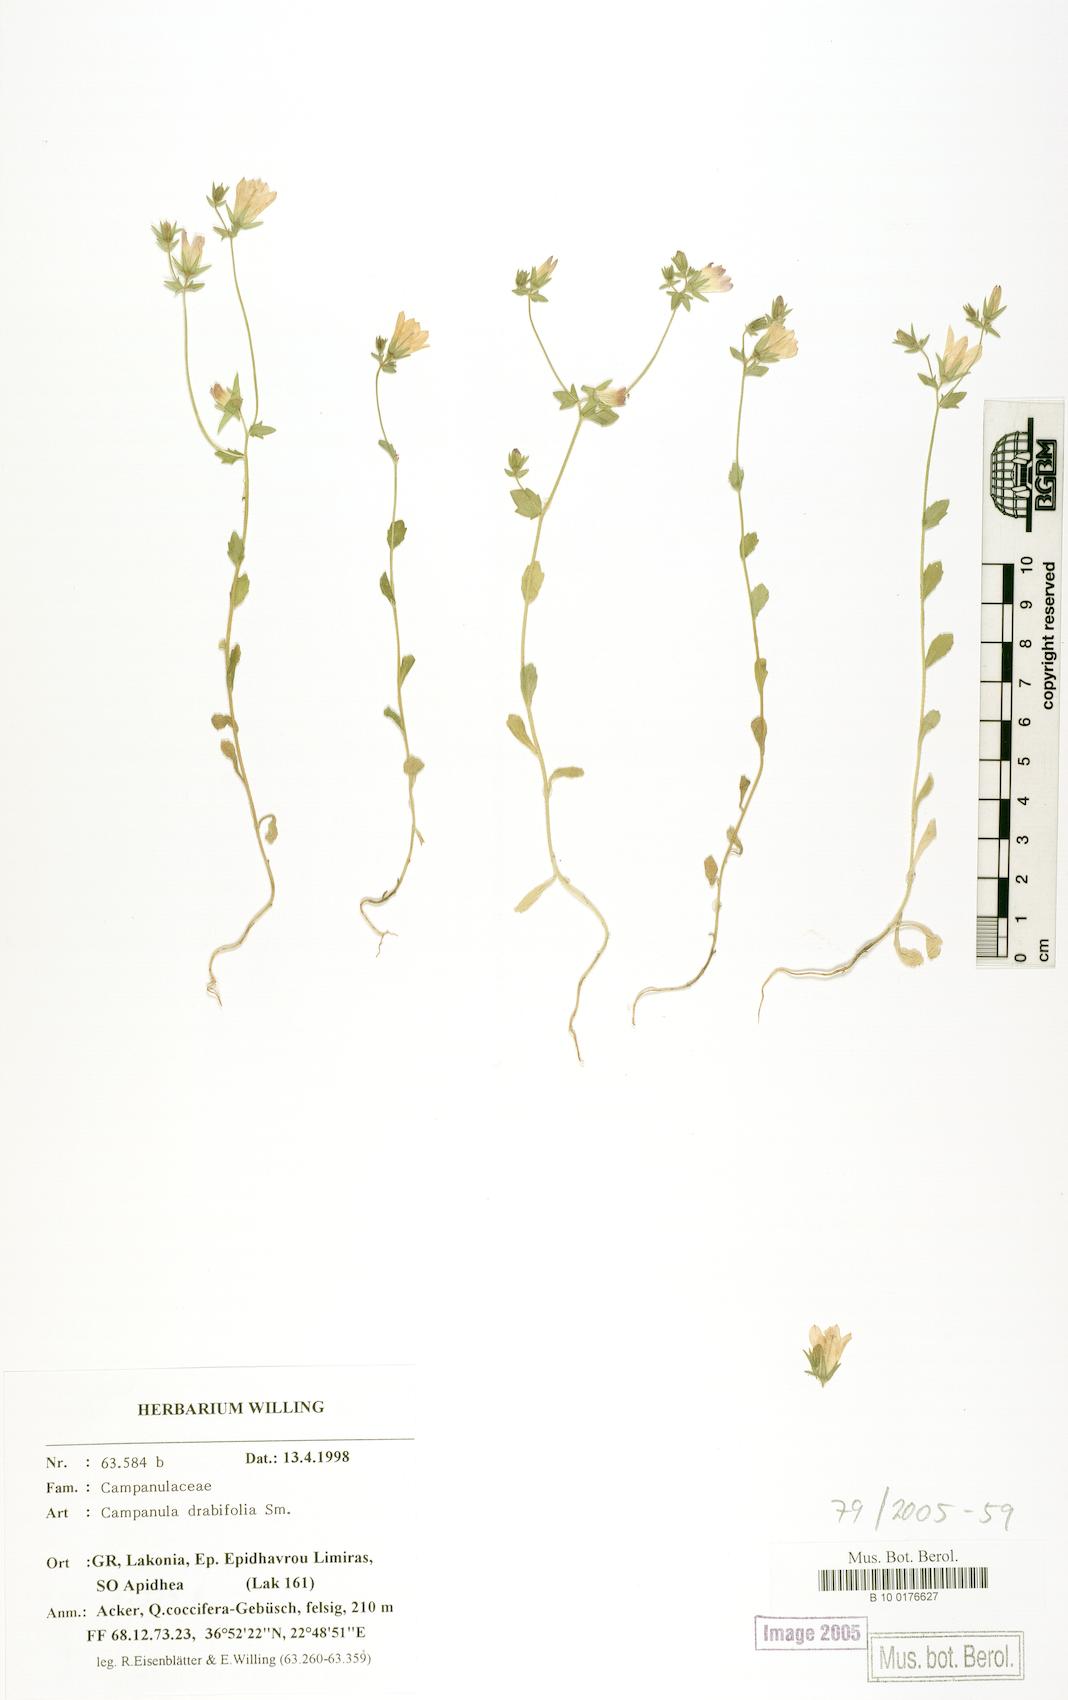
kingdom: Plantae
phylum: Tracheophyta
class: Magnoliopsida
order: Asterales
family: Campanulaceae
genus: Campanula
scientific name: Campanula drabifolia
